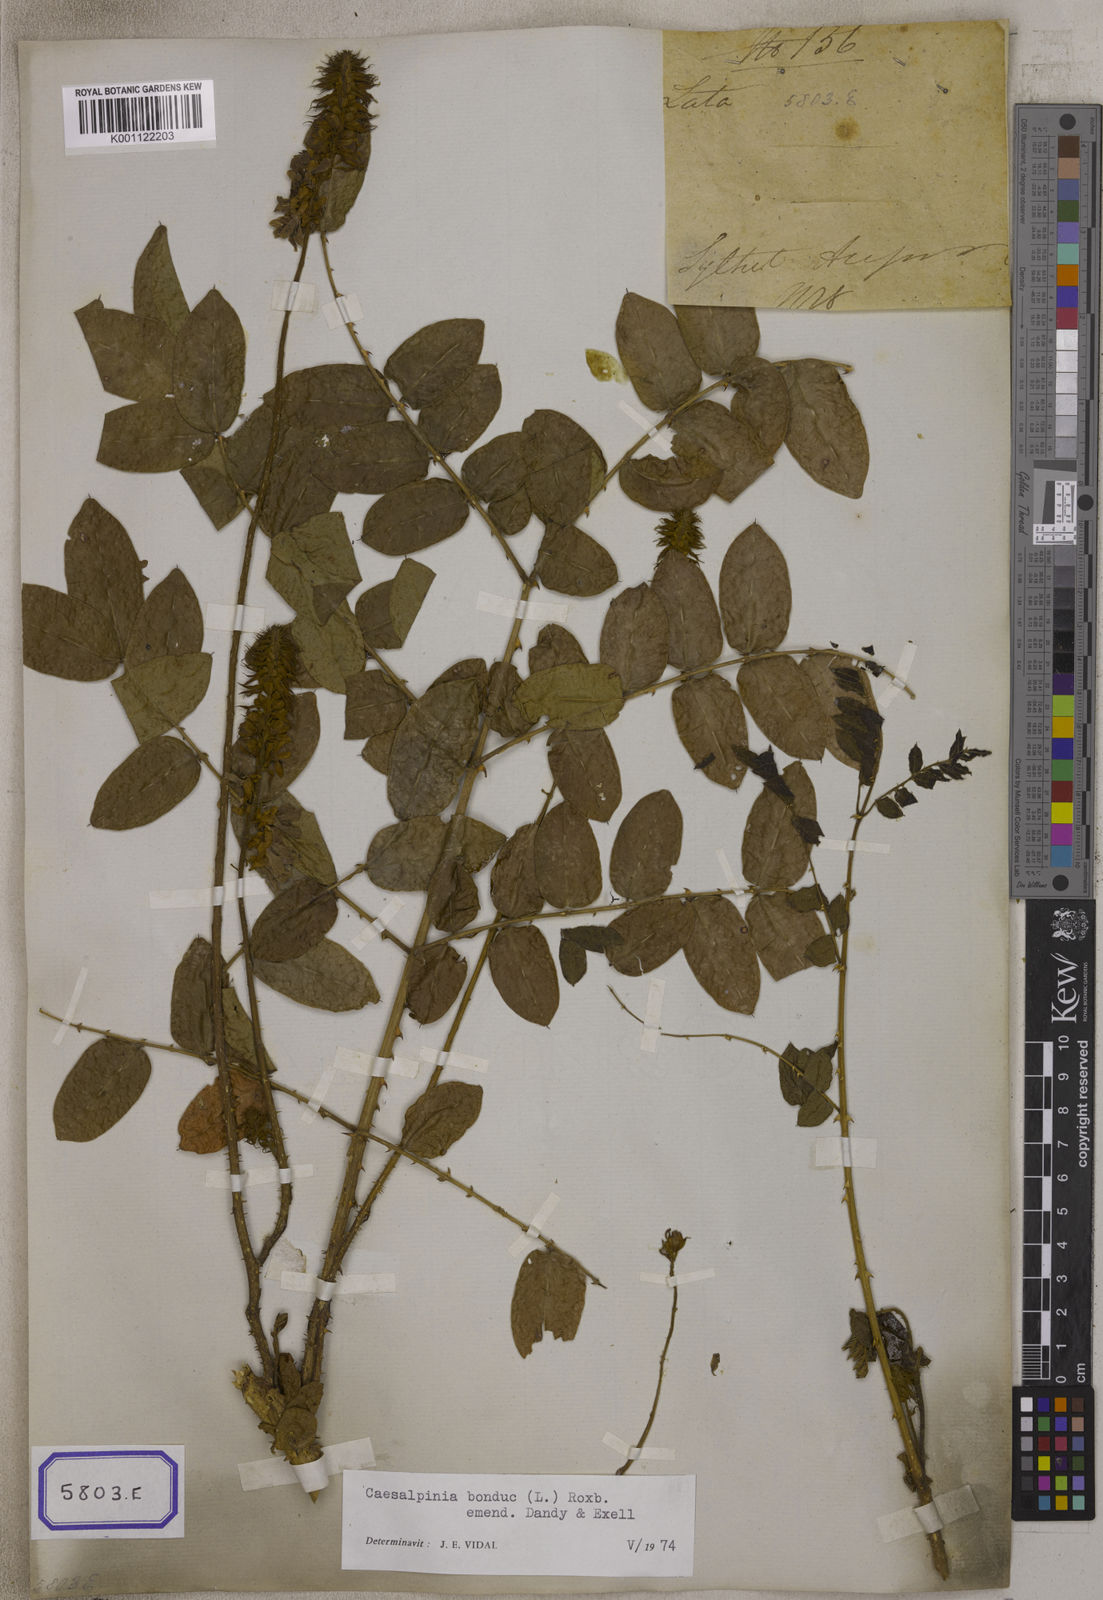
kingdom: Plantae
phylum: Tracheophyta
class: Magnoliopsida
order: Fabales
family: Fabaceae
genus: Guilandina
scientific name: Guilandina bonduc
